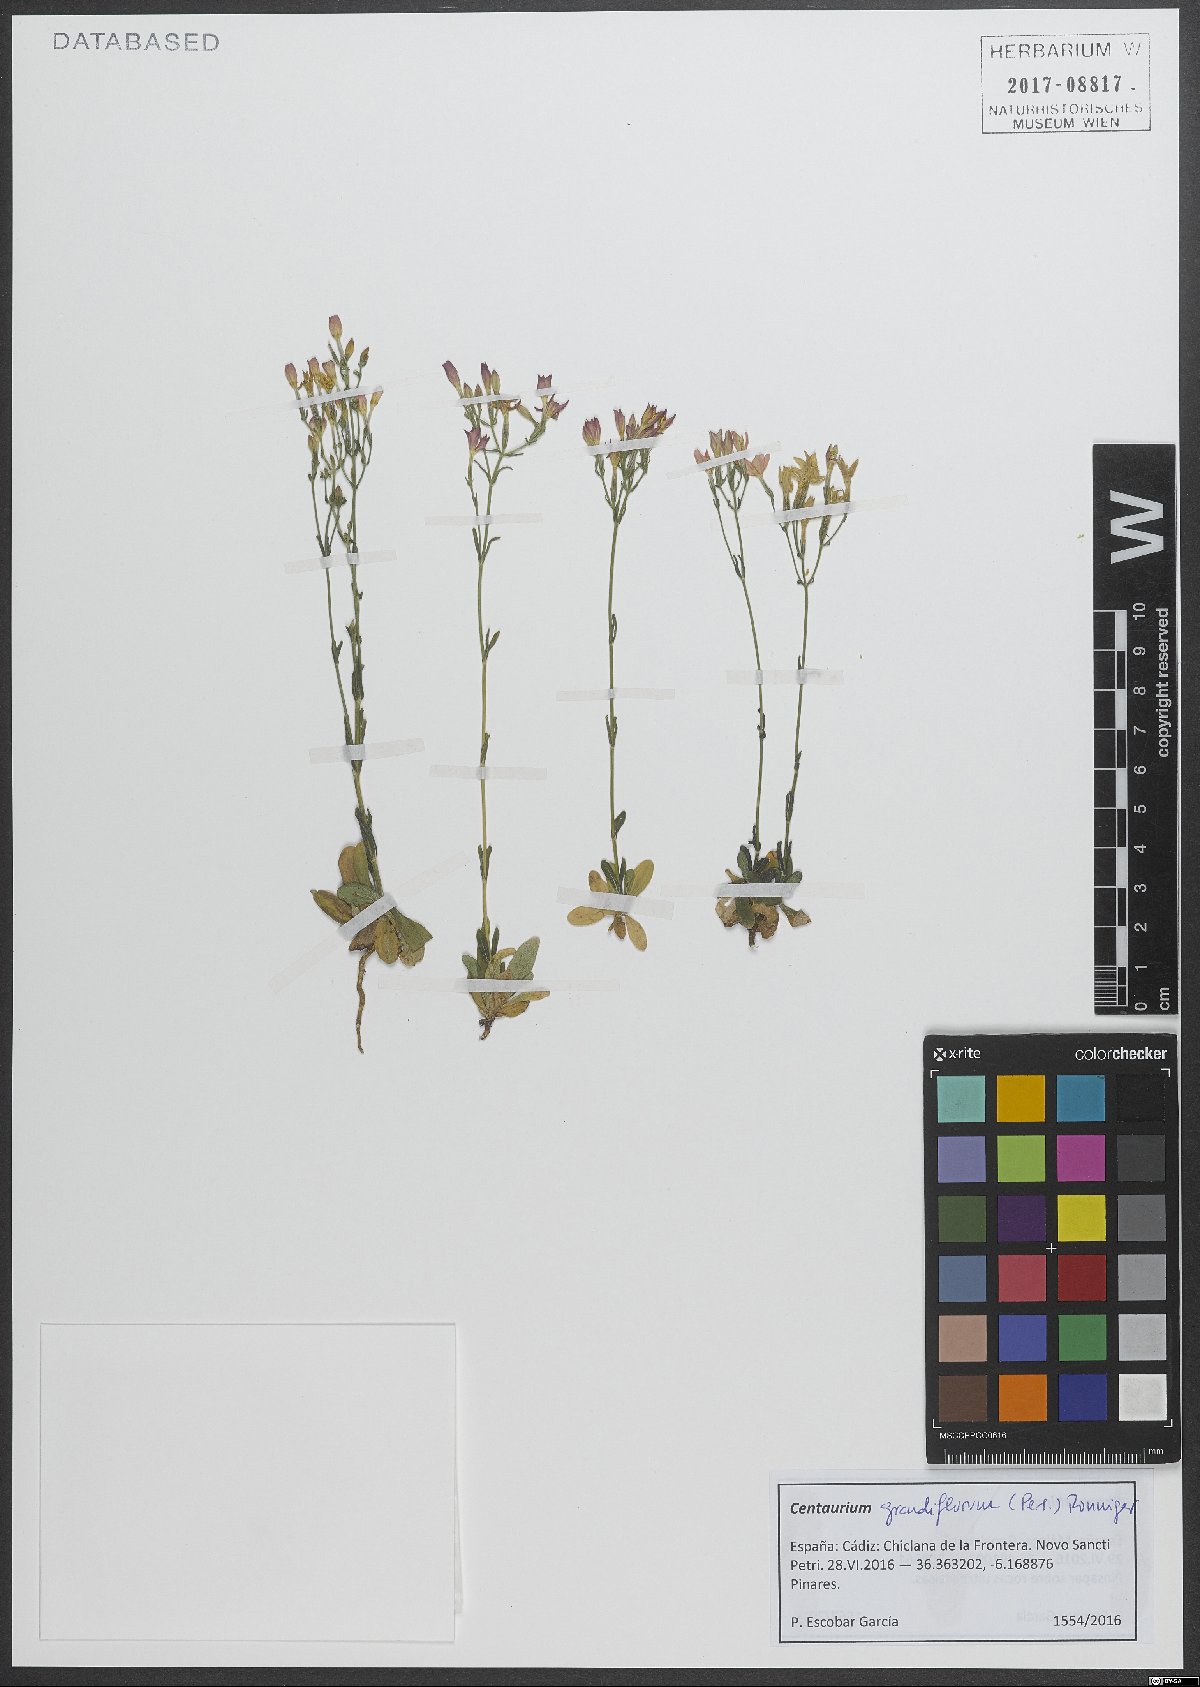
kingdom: Plantae
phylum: Tracheophyta
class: Magnoliopsida
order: Gentianales
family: Gentianaceae
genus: Centaurium
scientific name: Centaurium grandiflorum
